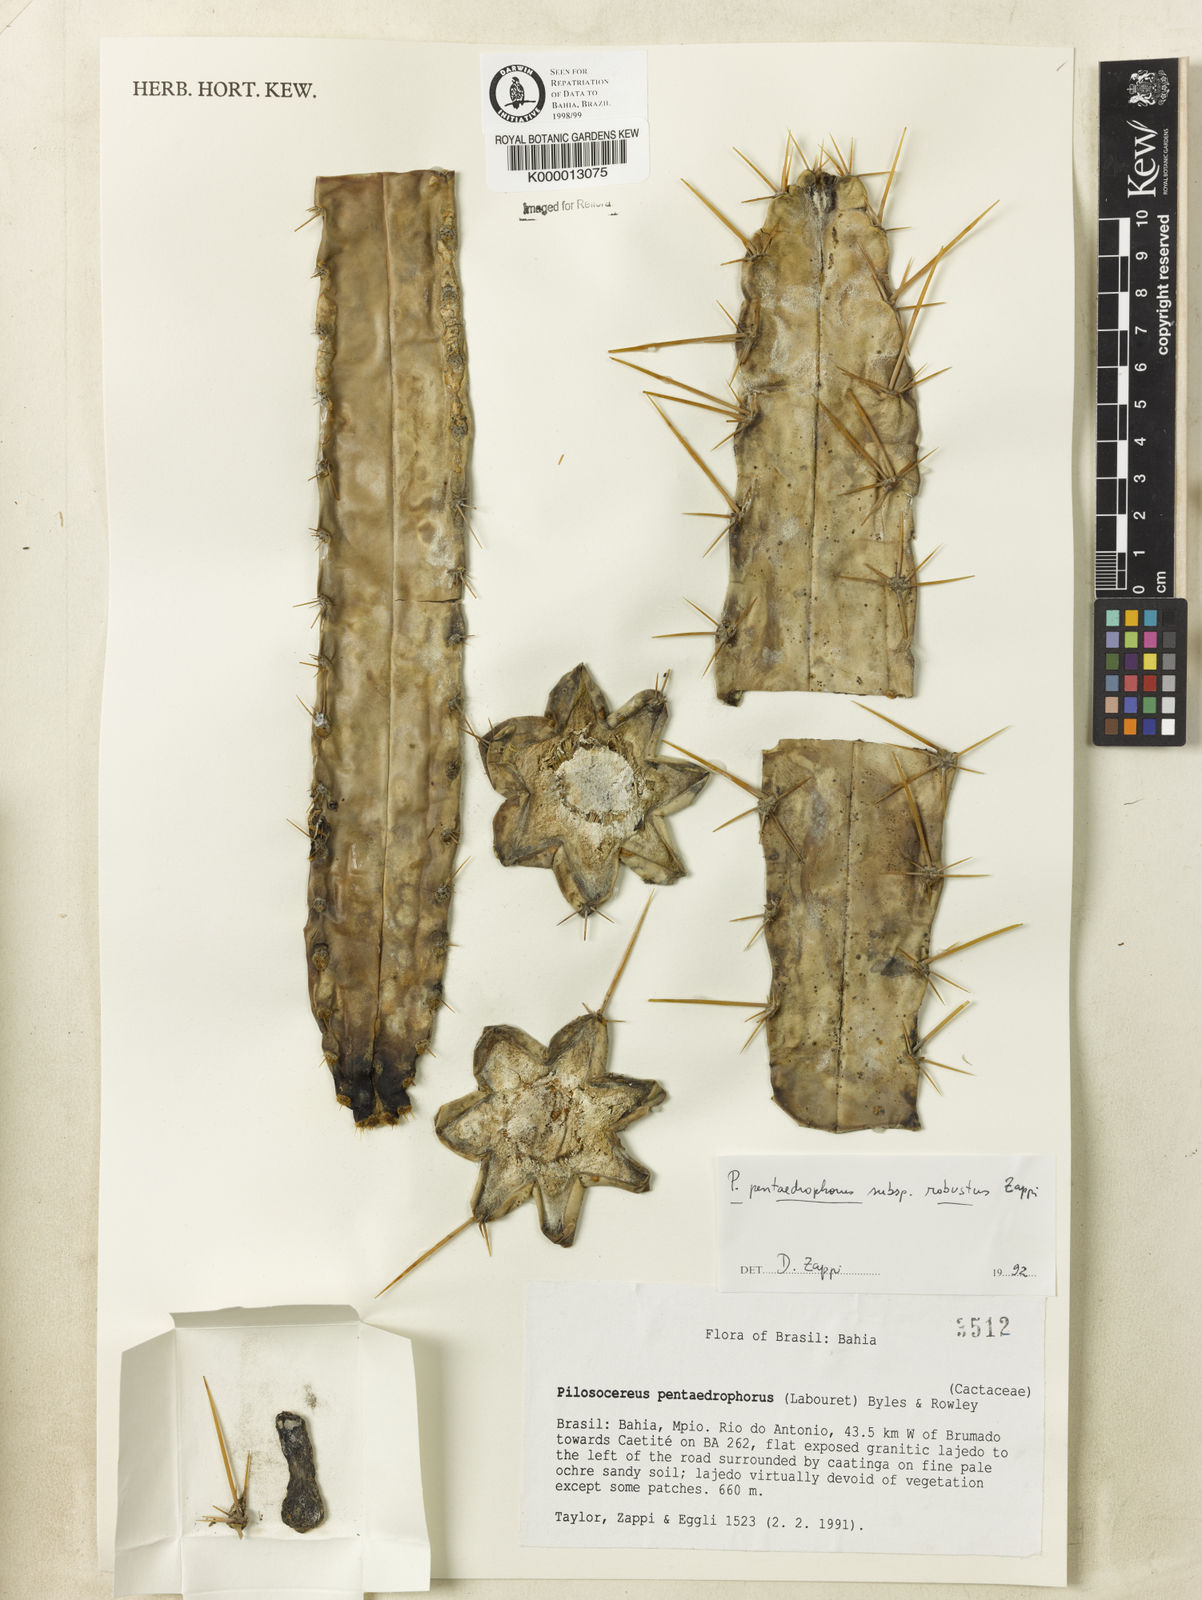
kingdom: Plantae
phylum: Tracheophyta
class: Magnoliopsida
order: Caryophyllales
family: Cactaceae
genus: Pilosocereus
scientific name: Pilosocereus pentaedrophorus
